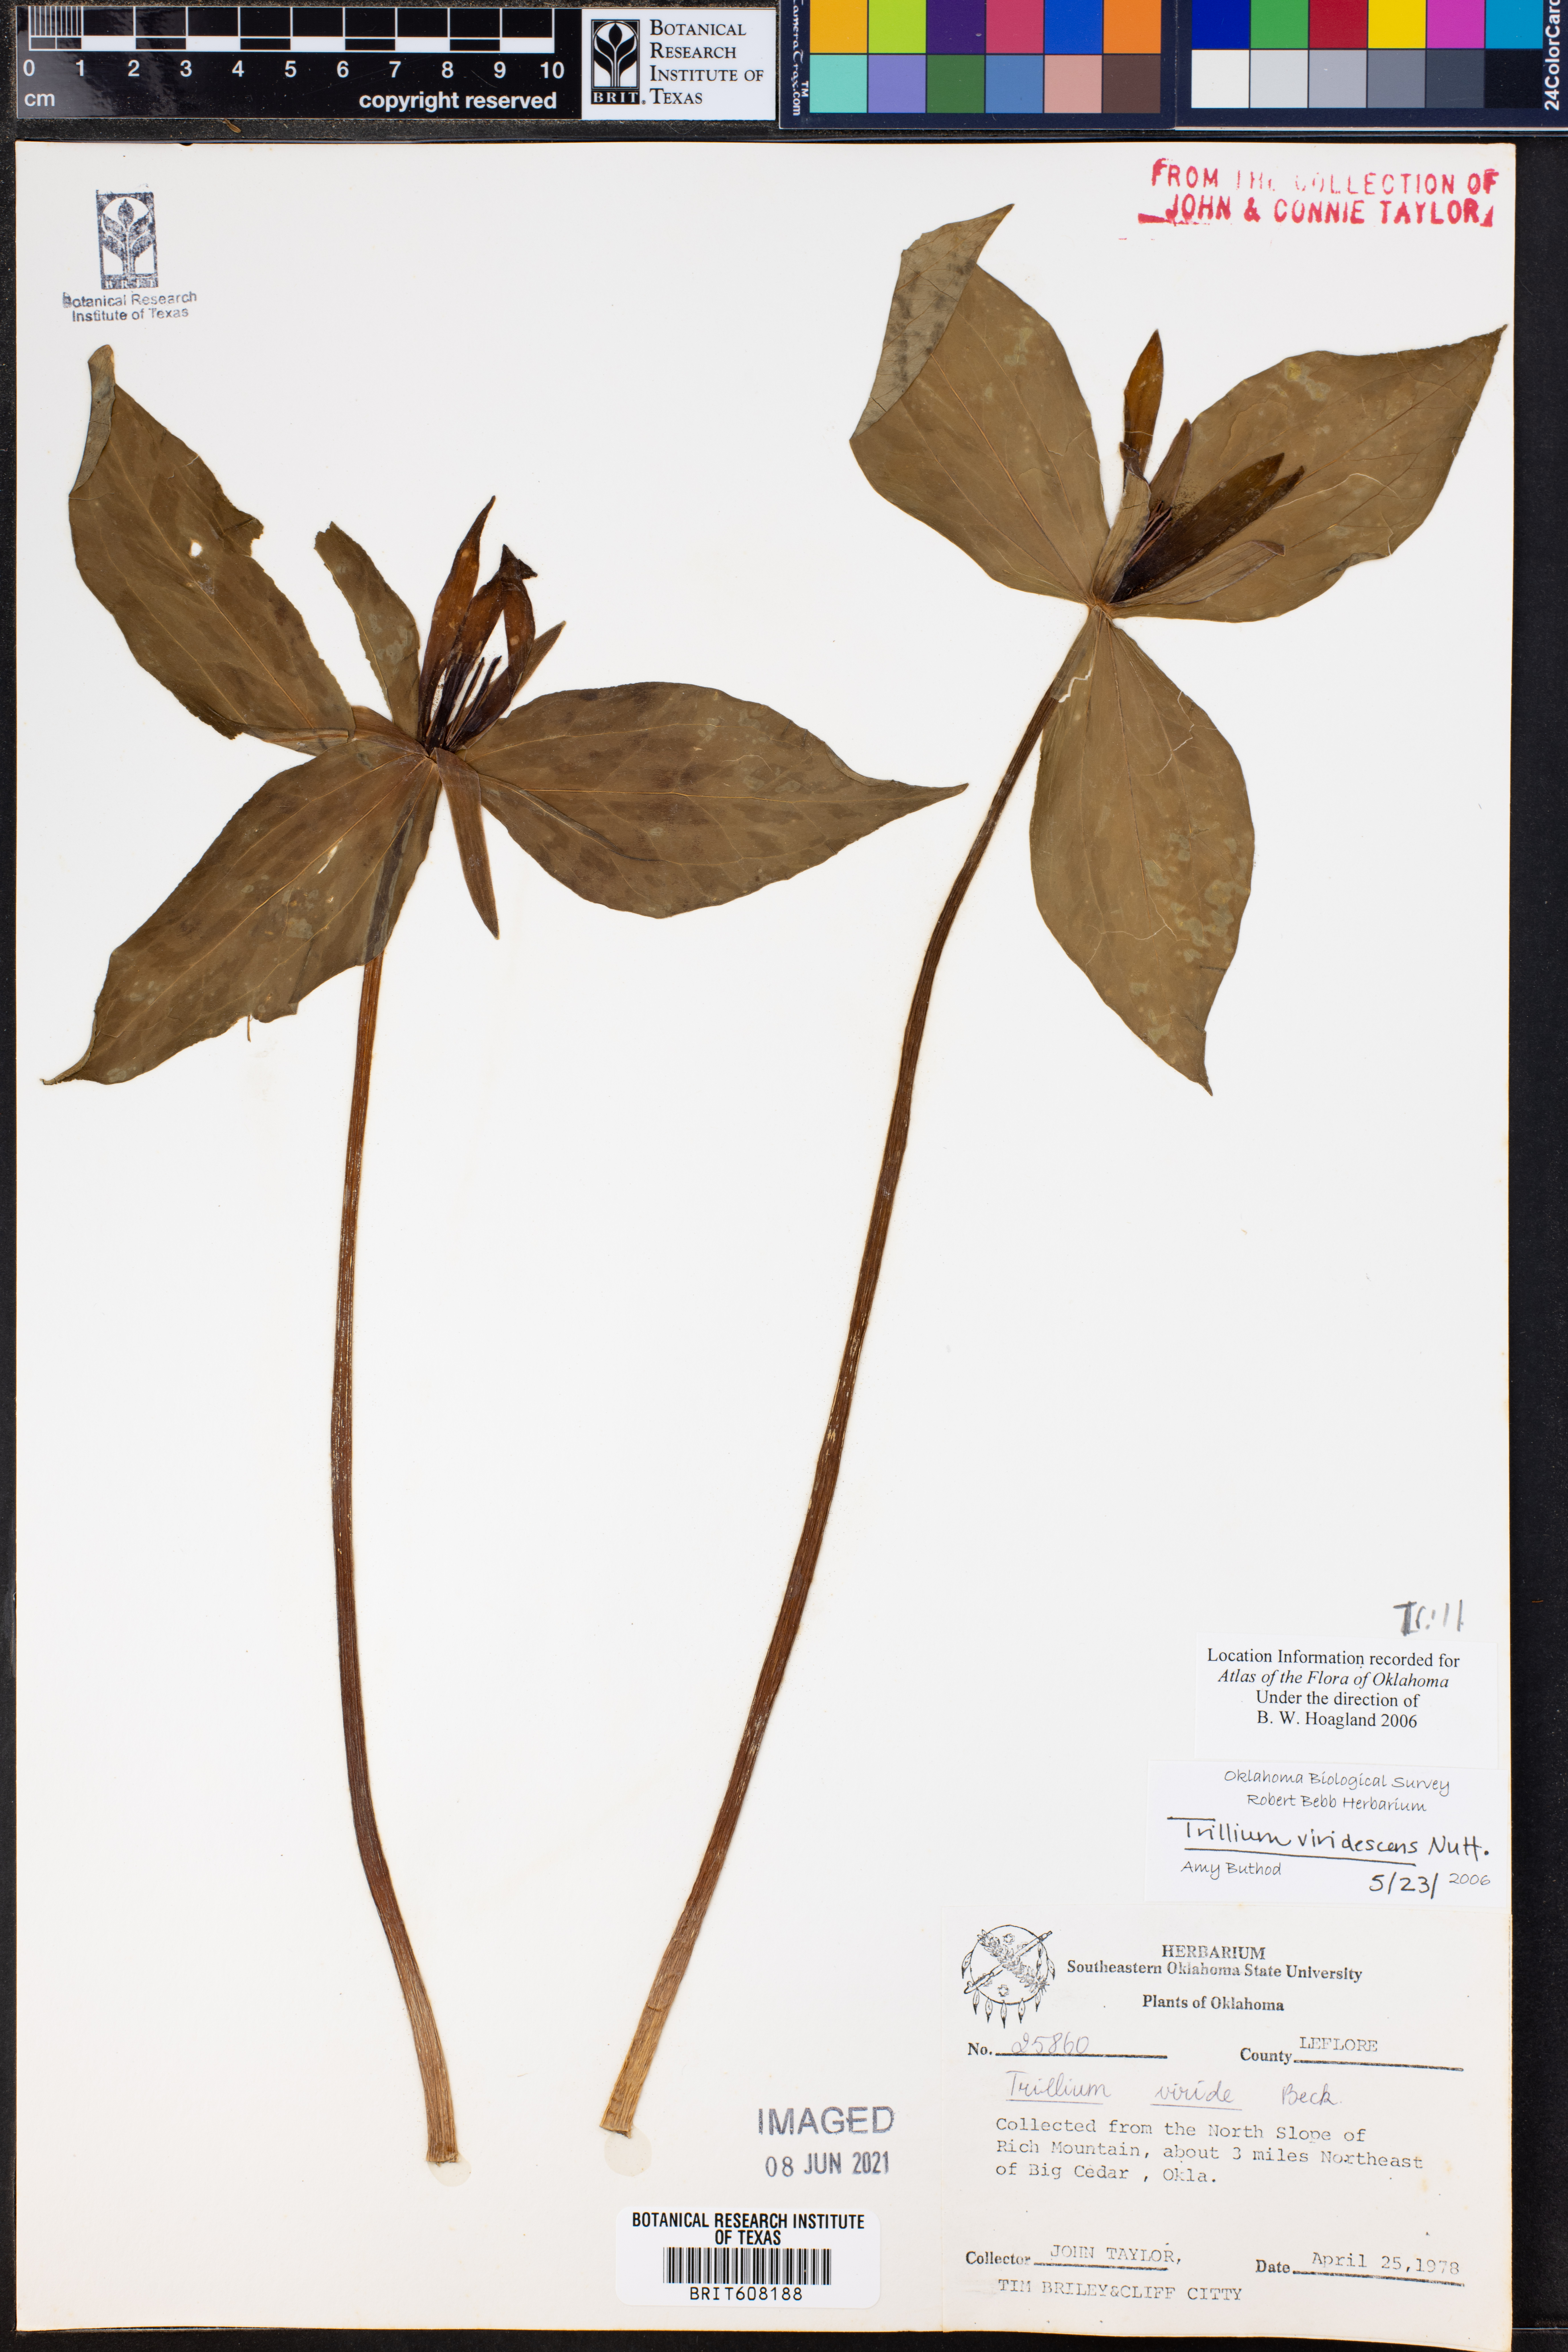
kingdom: Plantae
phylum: Tracheophyta
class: Liliopsida
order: Liliales
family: Melanthiaceae
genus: Trillium
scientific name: Trillium viridescens
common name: Ozark green trillium
